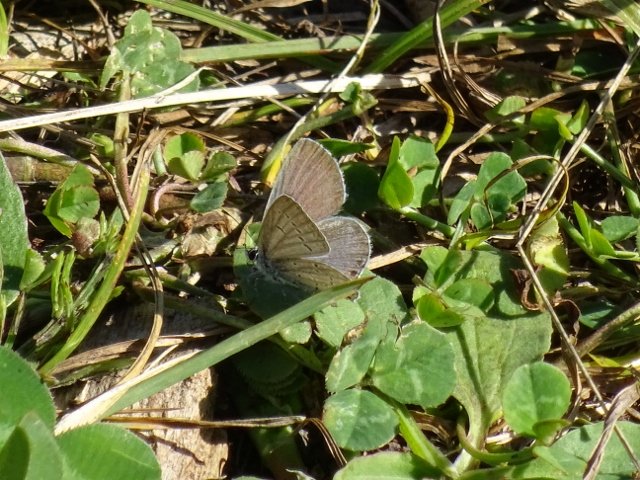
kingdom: Animalia
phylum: Arthropoda
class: Insecta
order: Lepidoptera
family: Lycaenidae
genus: Elkalyce
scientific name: Elkalyce comyntas
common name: Eastern Tailed-Blue
